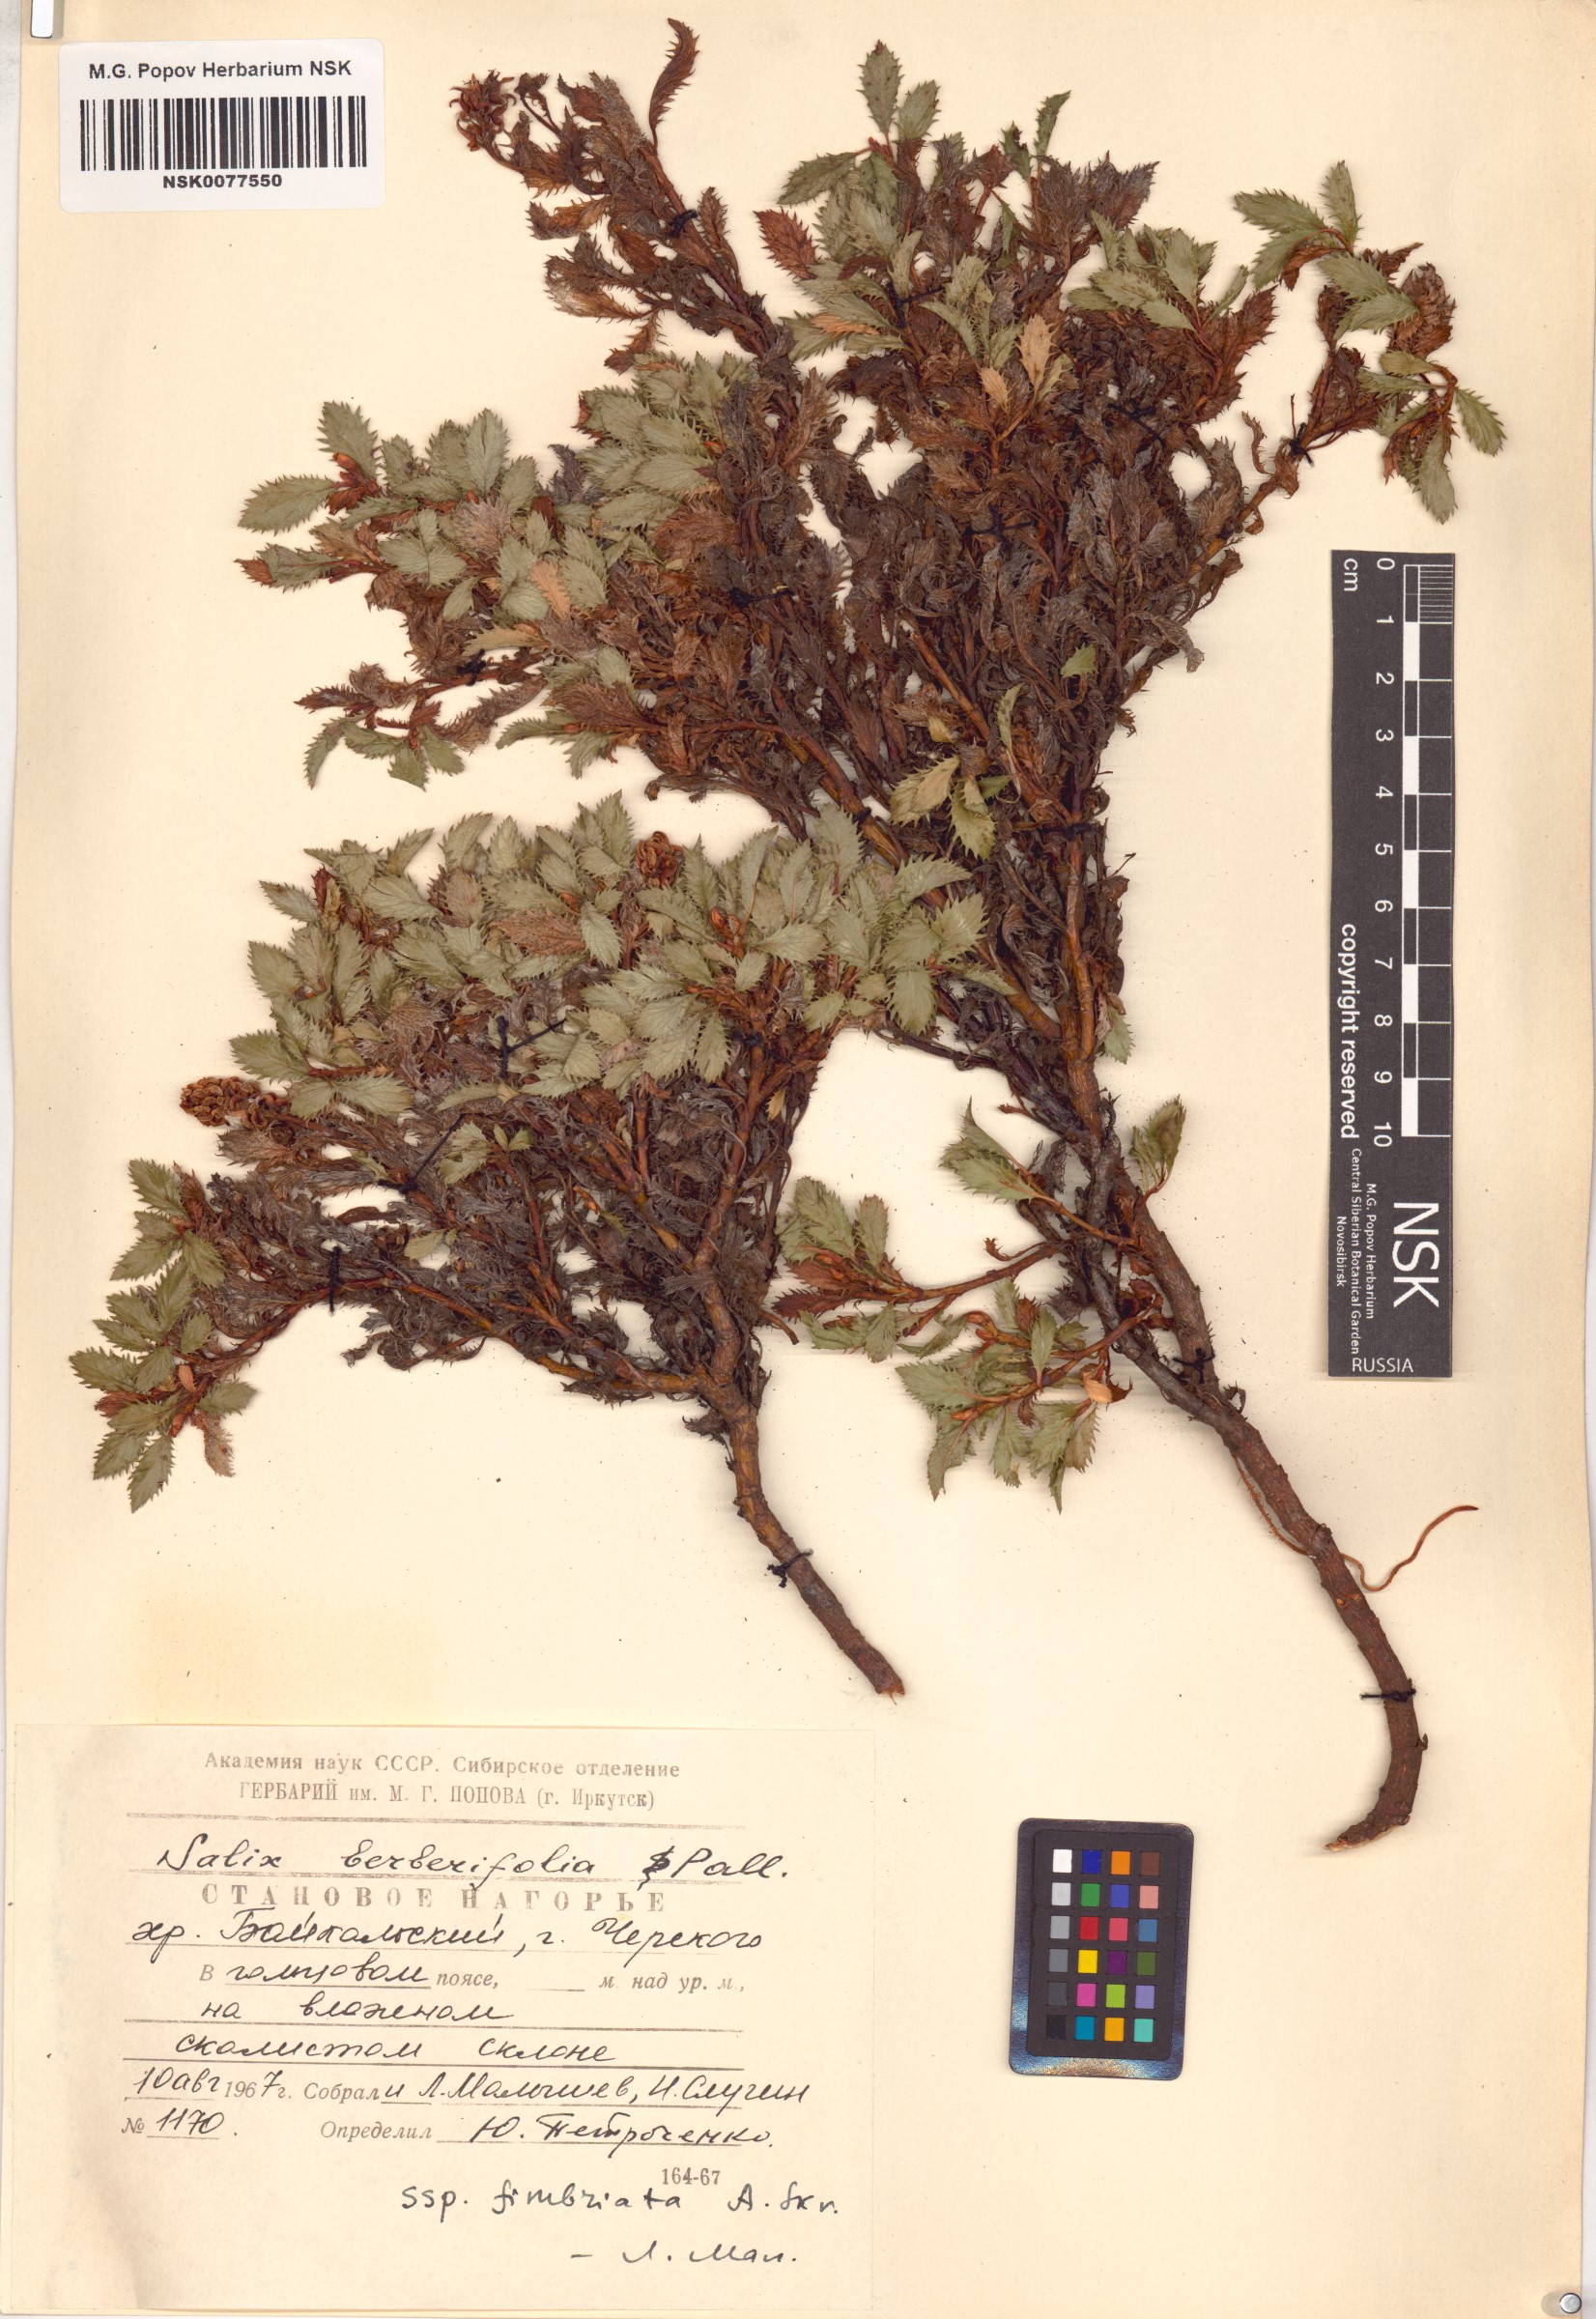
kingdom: Plantae
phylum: Tracheophyta
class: Magnoliopsida
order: Malpighiales
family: Salicaceae
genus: Salix
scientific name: Salix berberifolia
